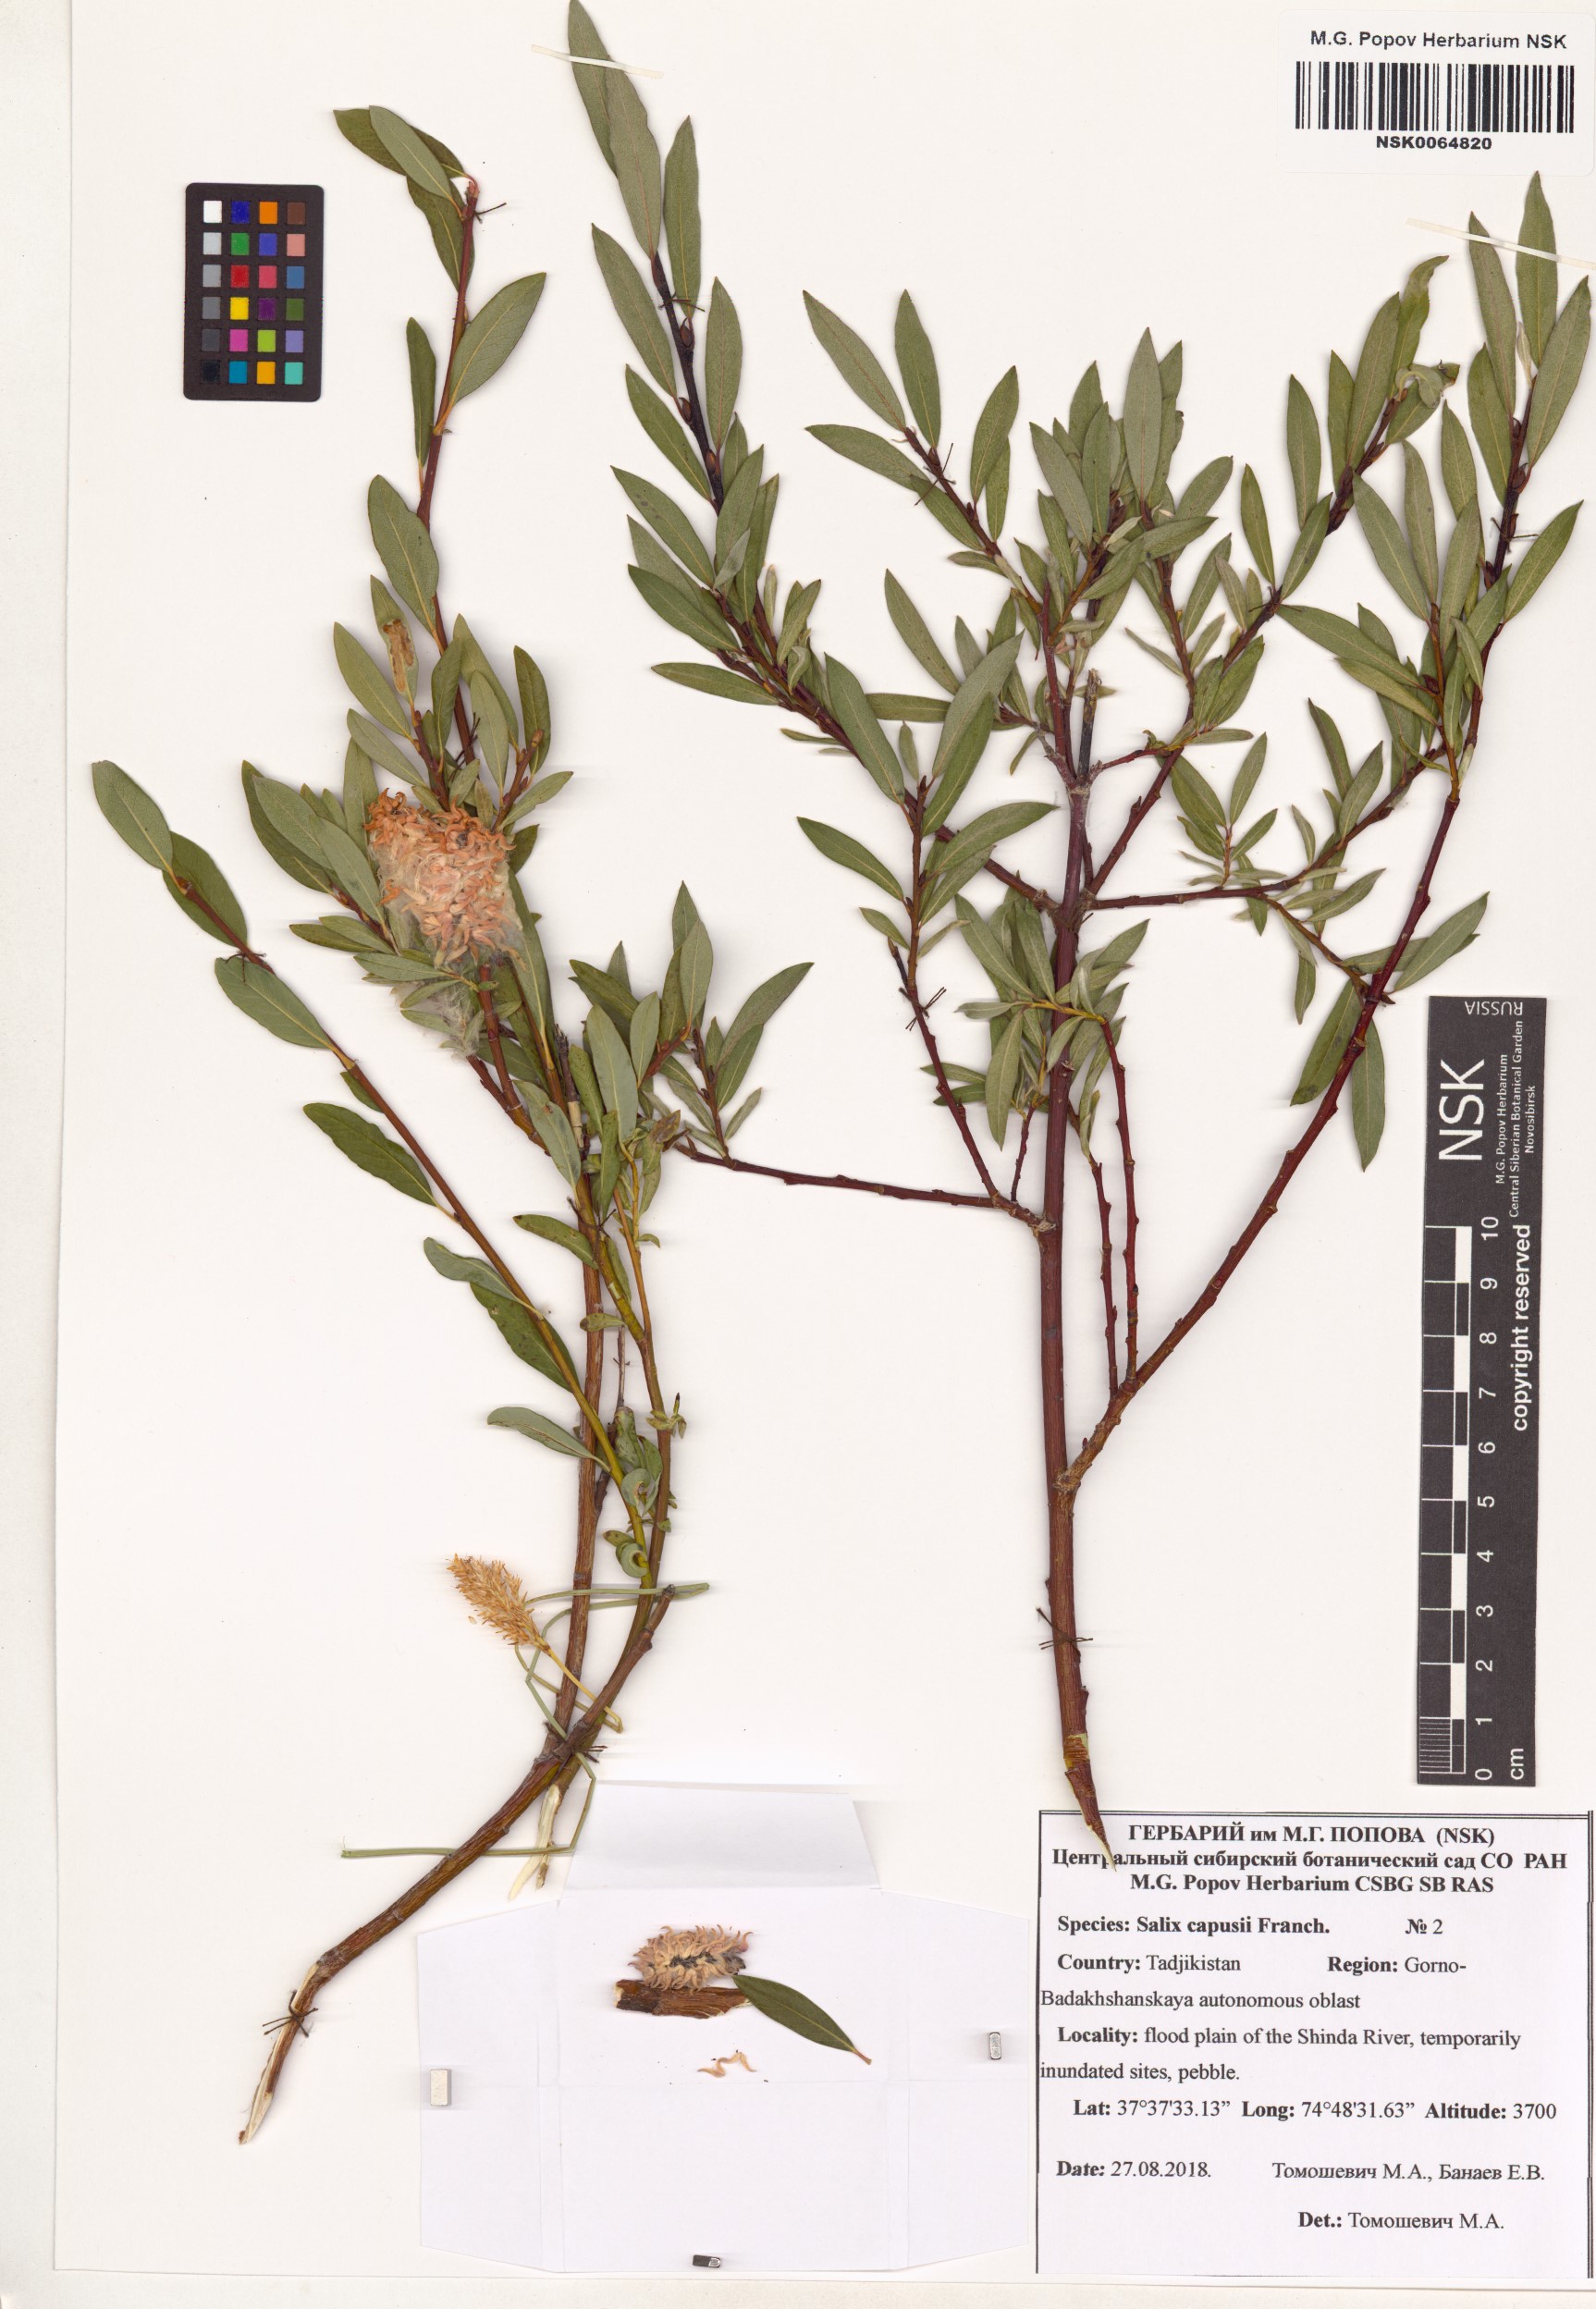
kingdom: Plantae
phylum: Tracheophyta
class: Magnoliopsida
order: Malpighiales
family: Salicaceae
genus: Salix
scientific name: Salix capusii
